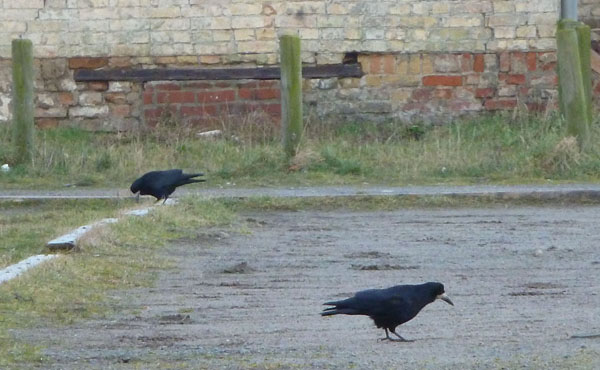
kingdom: Animalia
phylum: Chordata
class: Aves
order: Passeriformes
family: Corvidae
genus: Corvus
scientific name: Corvus frugilegus
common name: Rook
